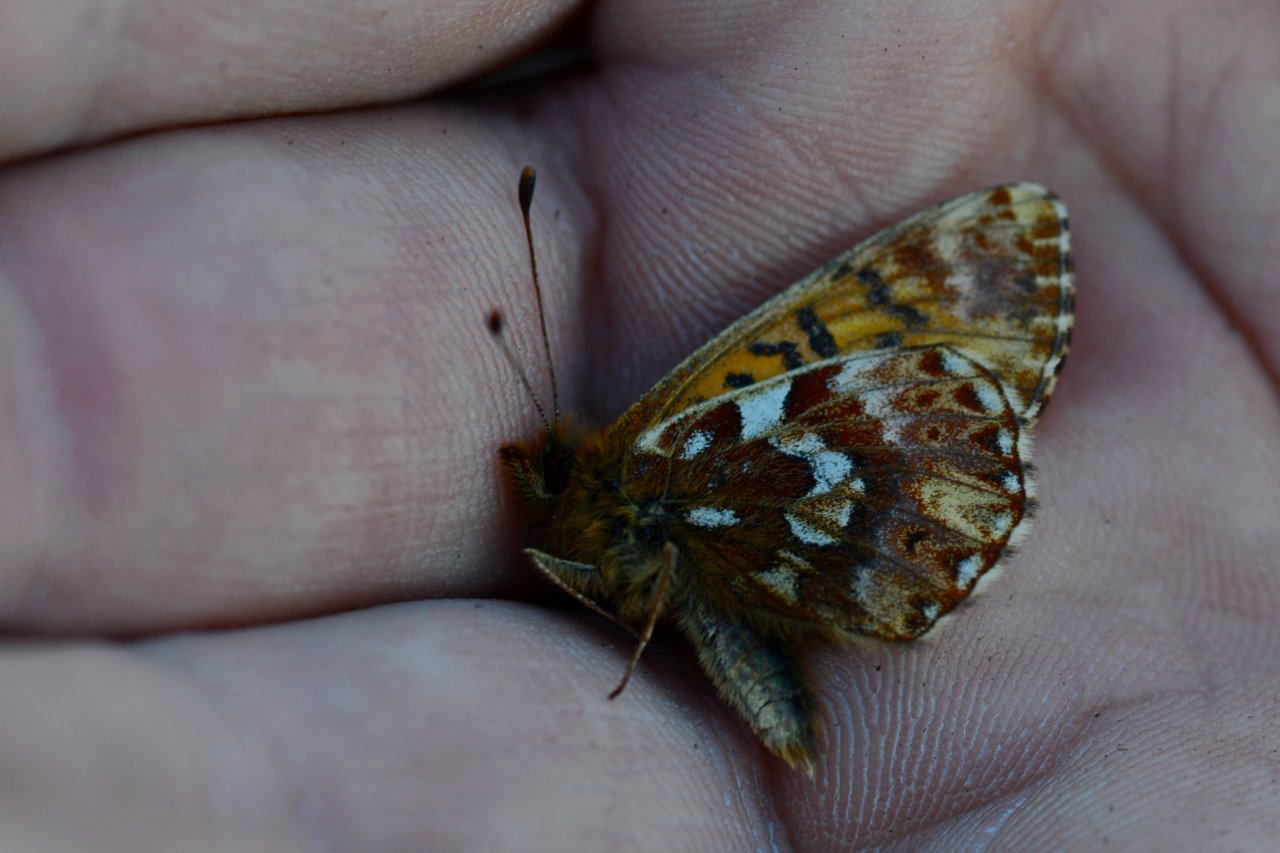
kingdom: Animalia
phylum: Arthropoda
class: Insecta
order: Lepidoptera
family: Nymphalidae
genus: Boloria
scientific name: Boloria chariclea
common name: Arctic Fritillary
